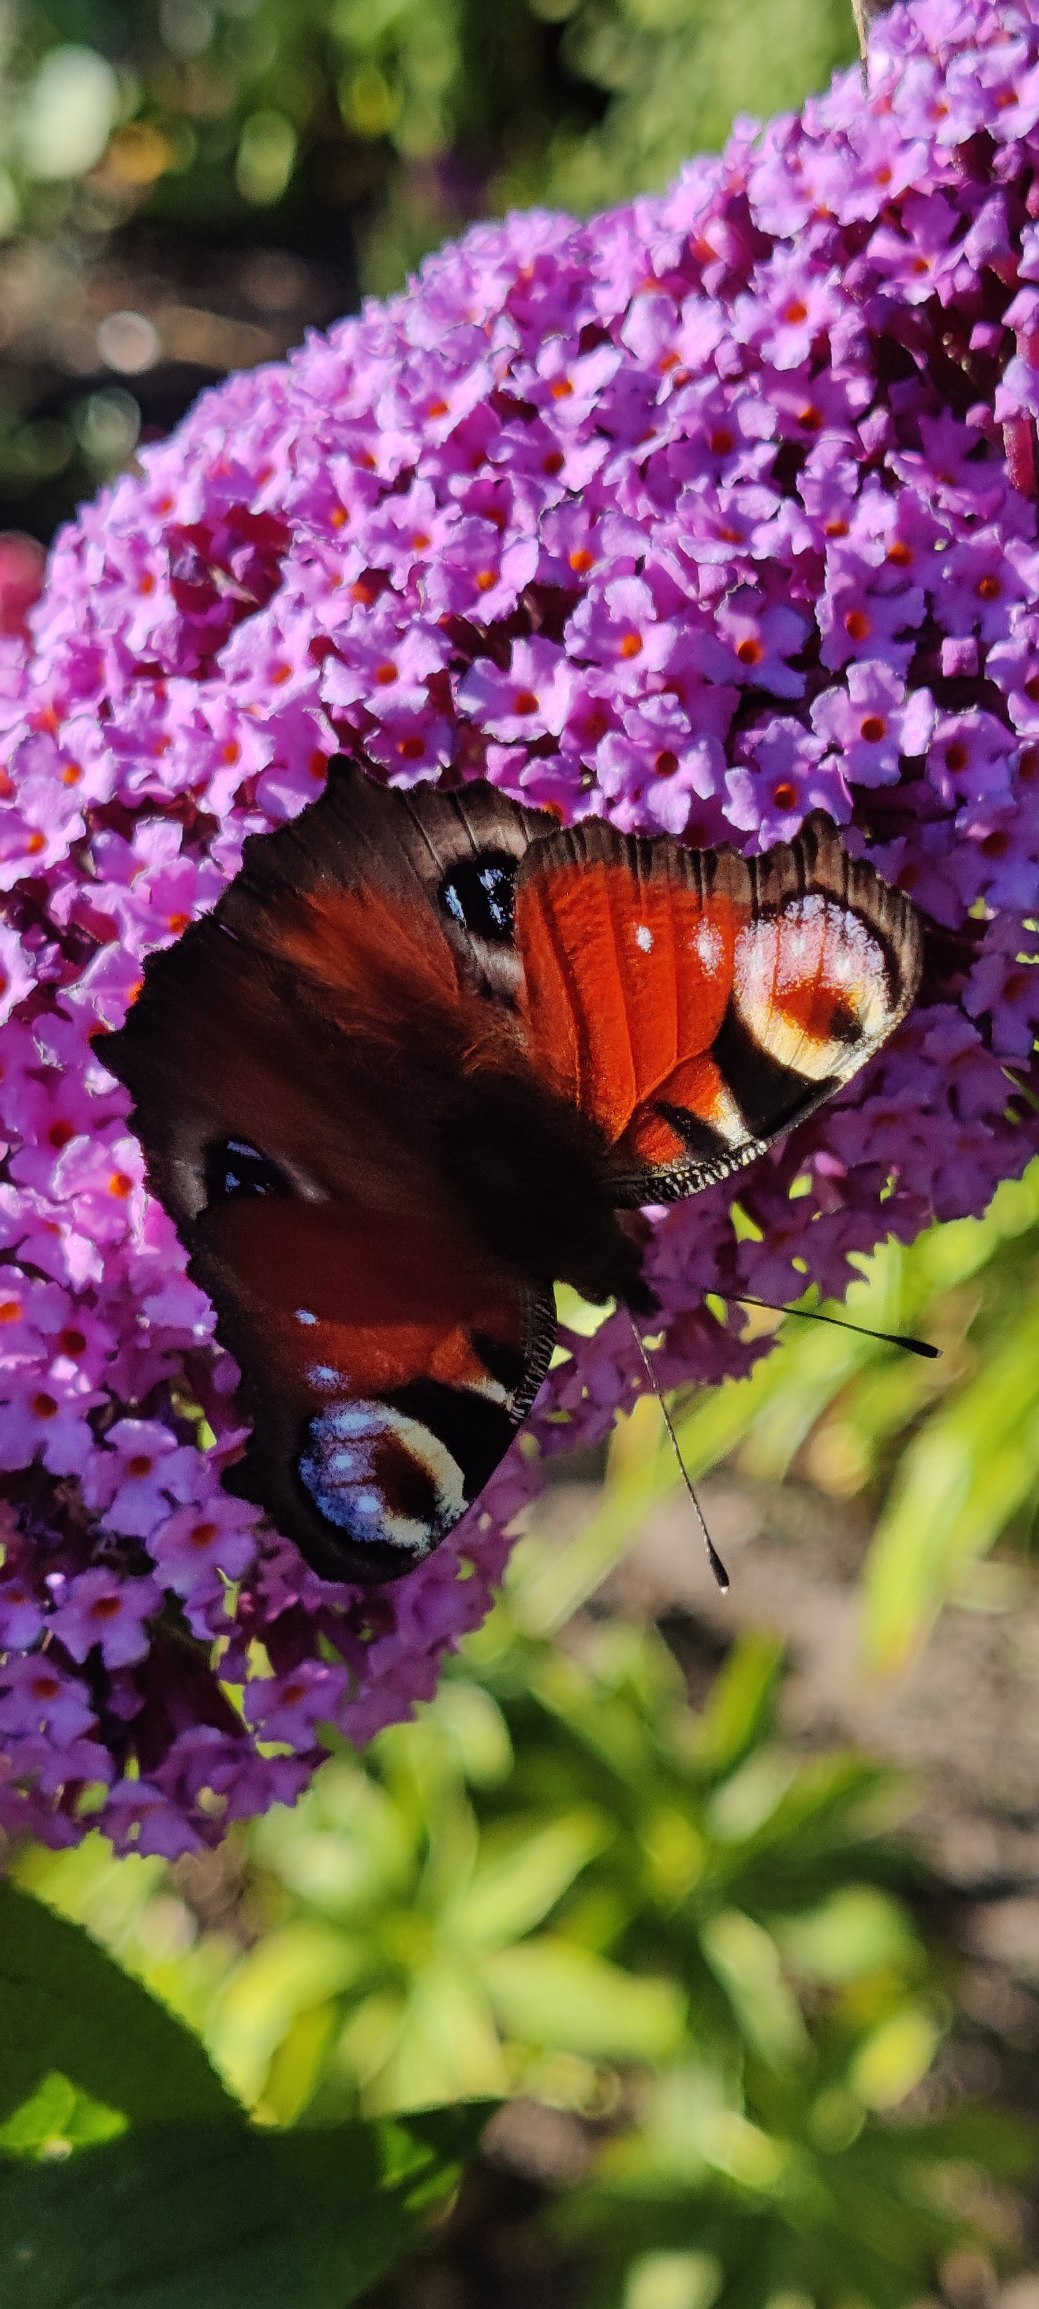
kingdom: Animalia
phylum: Arthropoda
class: Insecta
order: Lepidoptera
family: Nymphalidae
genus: Aglais
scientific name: Aglais io
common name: Dagpåfugleøje
